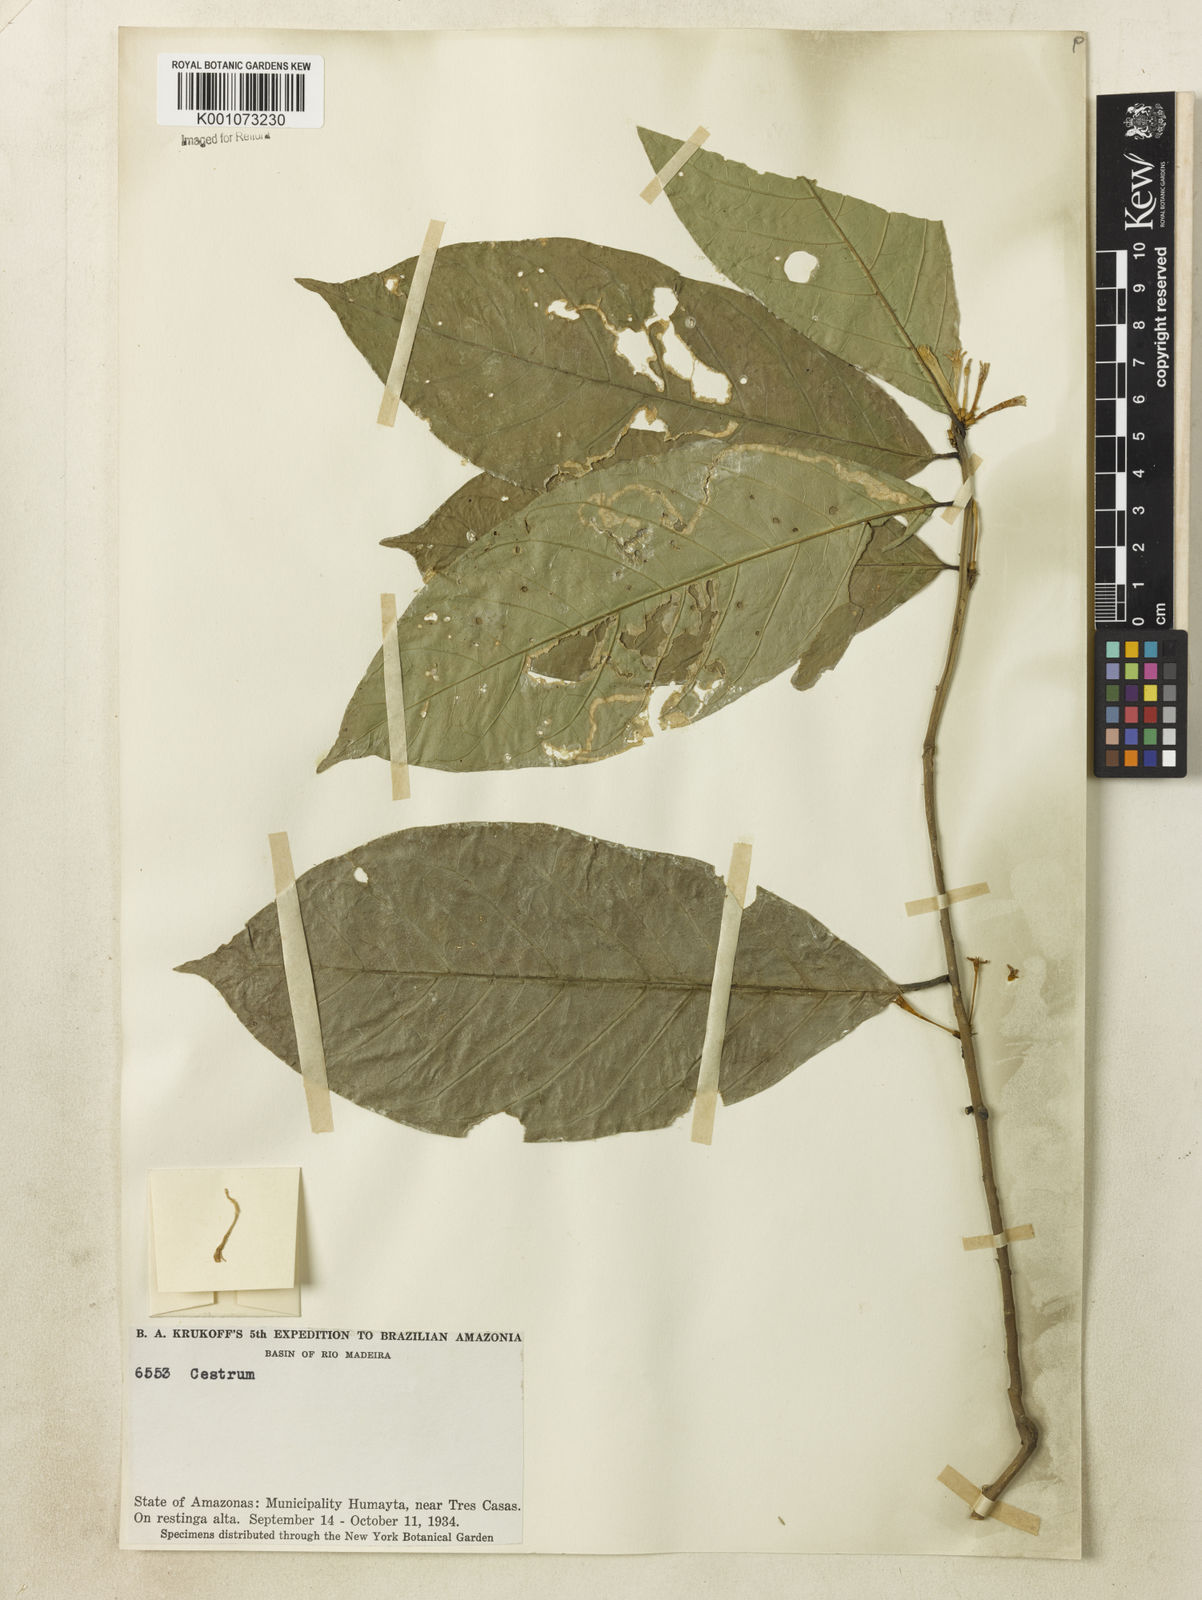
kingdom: Plantae
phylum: Tracheophyta
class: Magnoliopsida
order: Solanales
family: Solanaceae
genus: Cestrum
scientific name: Cestrum
